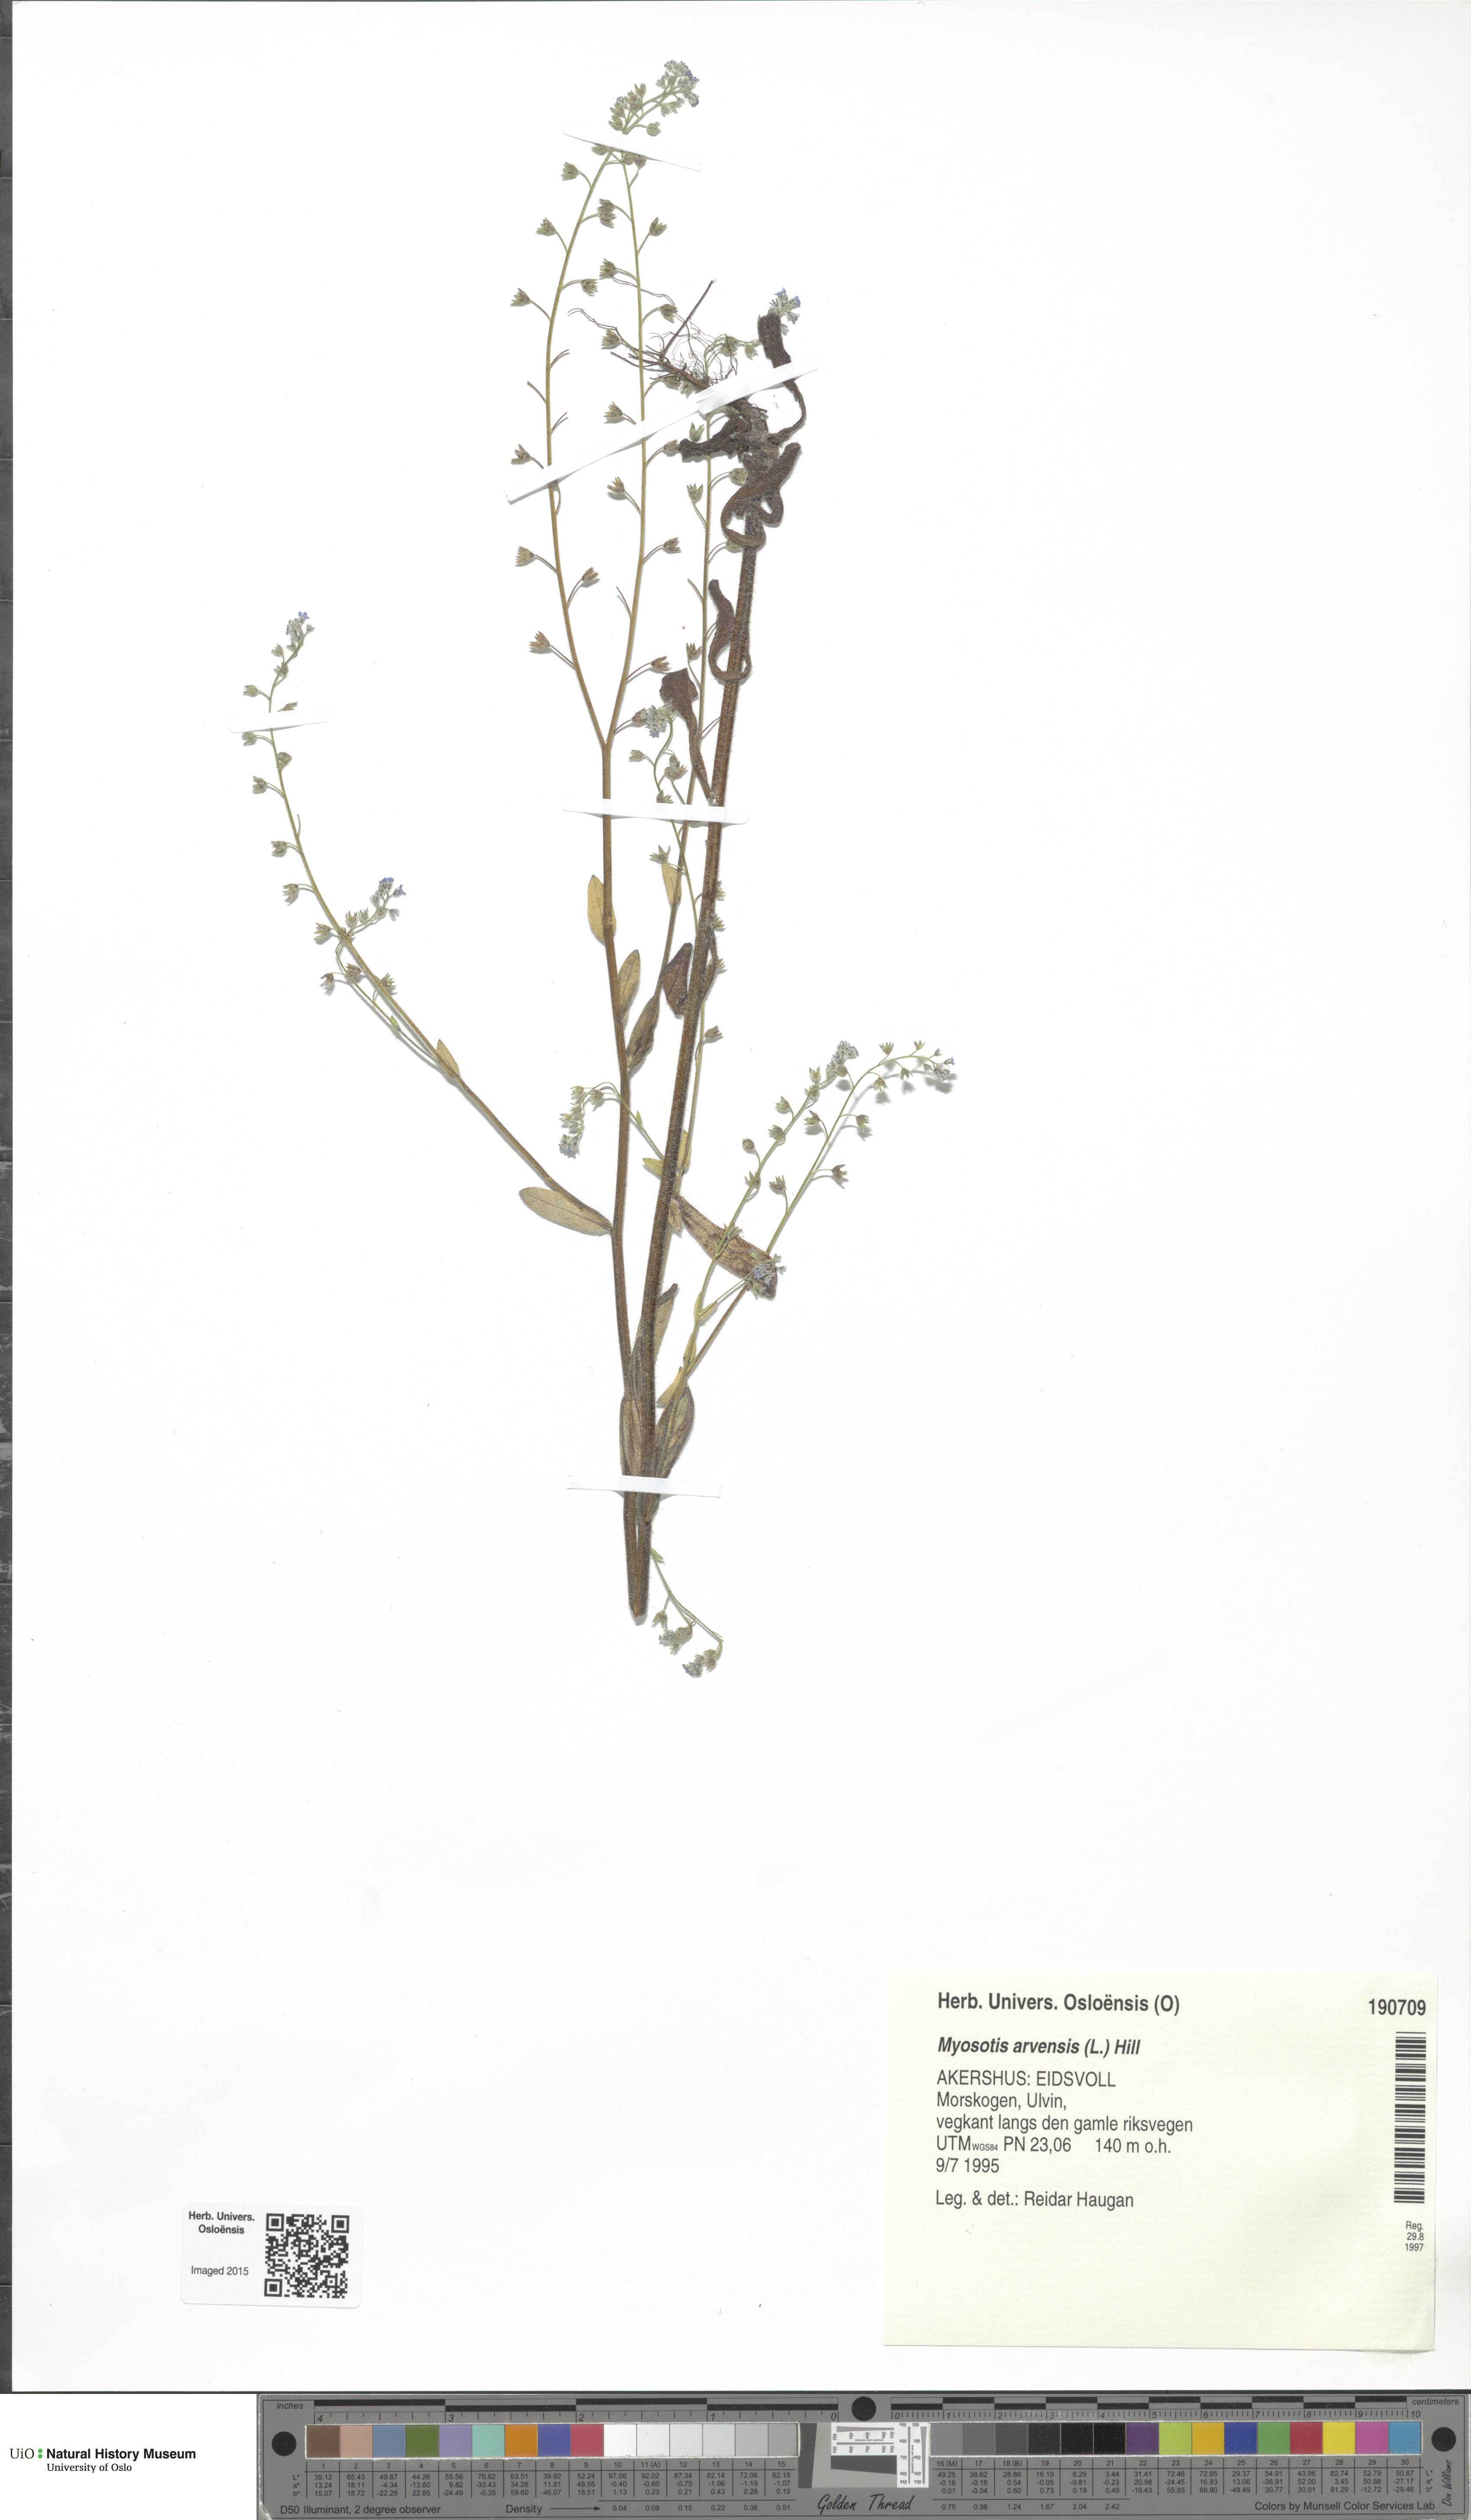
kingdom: Plantae
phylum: Tracheophyta
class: Magnoliopsida
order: Boraginales
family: Boraginaceae
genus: Myosotis
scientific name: Myosotis arvensis
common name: Field forget-me-not
